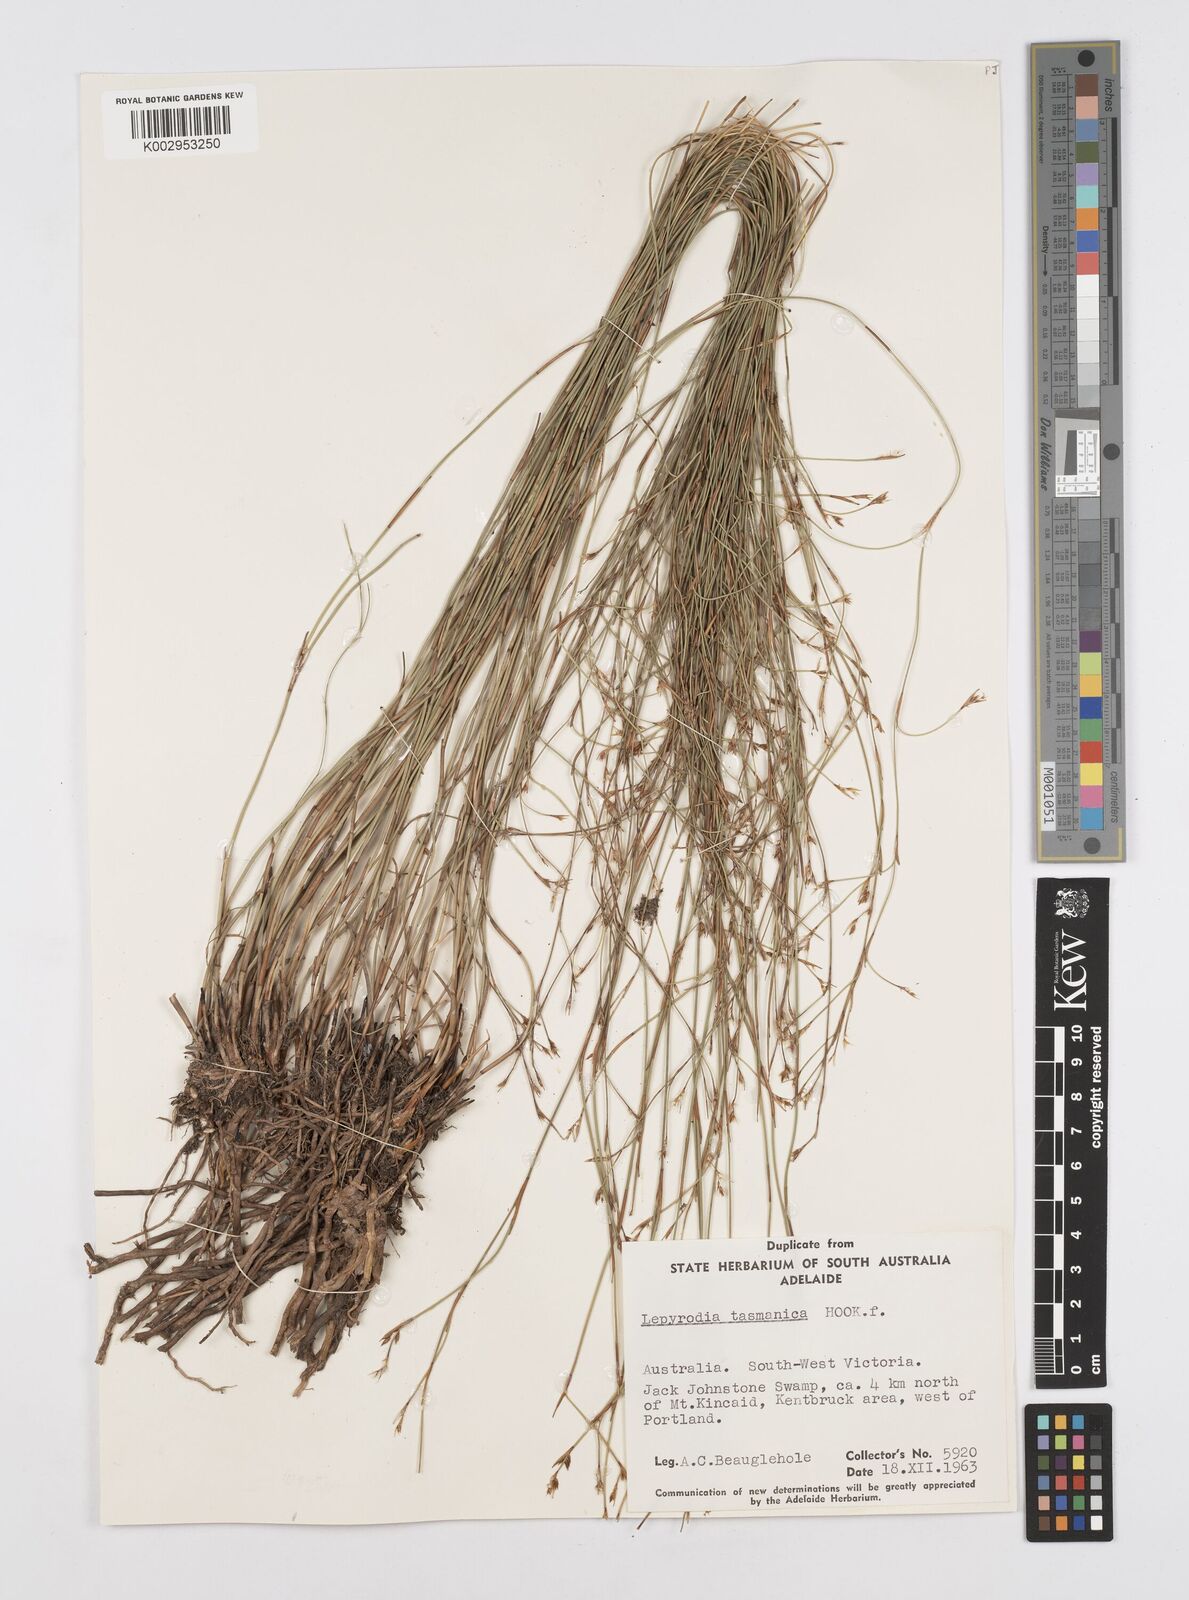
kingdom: Plantae
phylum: Tracheophyta
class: Liliopsida
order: Poales
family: Restionaceae
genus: Sporadanthus
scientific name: Sporadanthus tasmanicus
